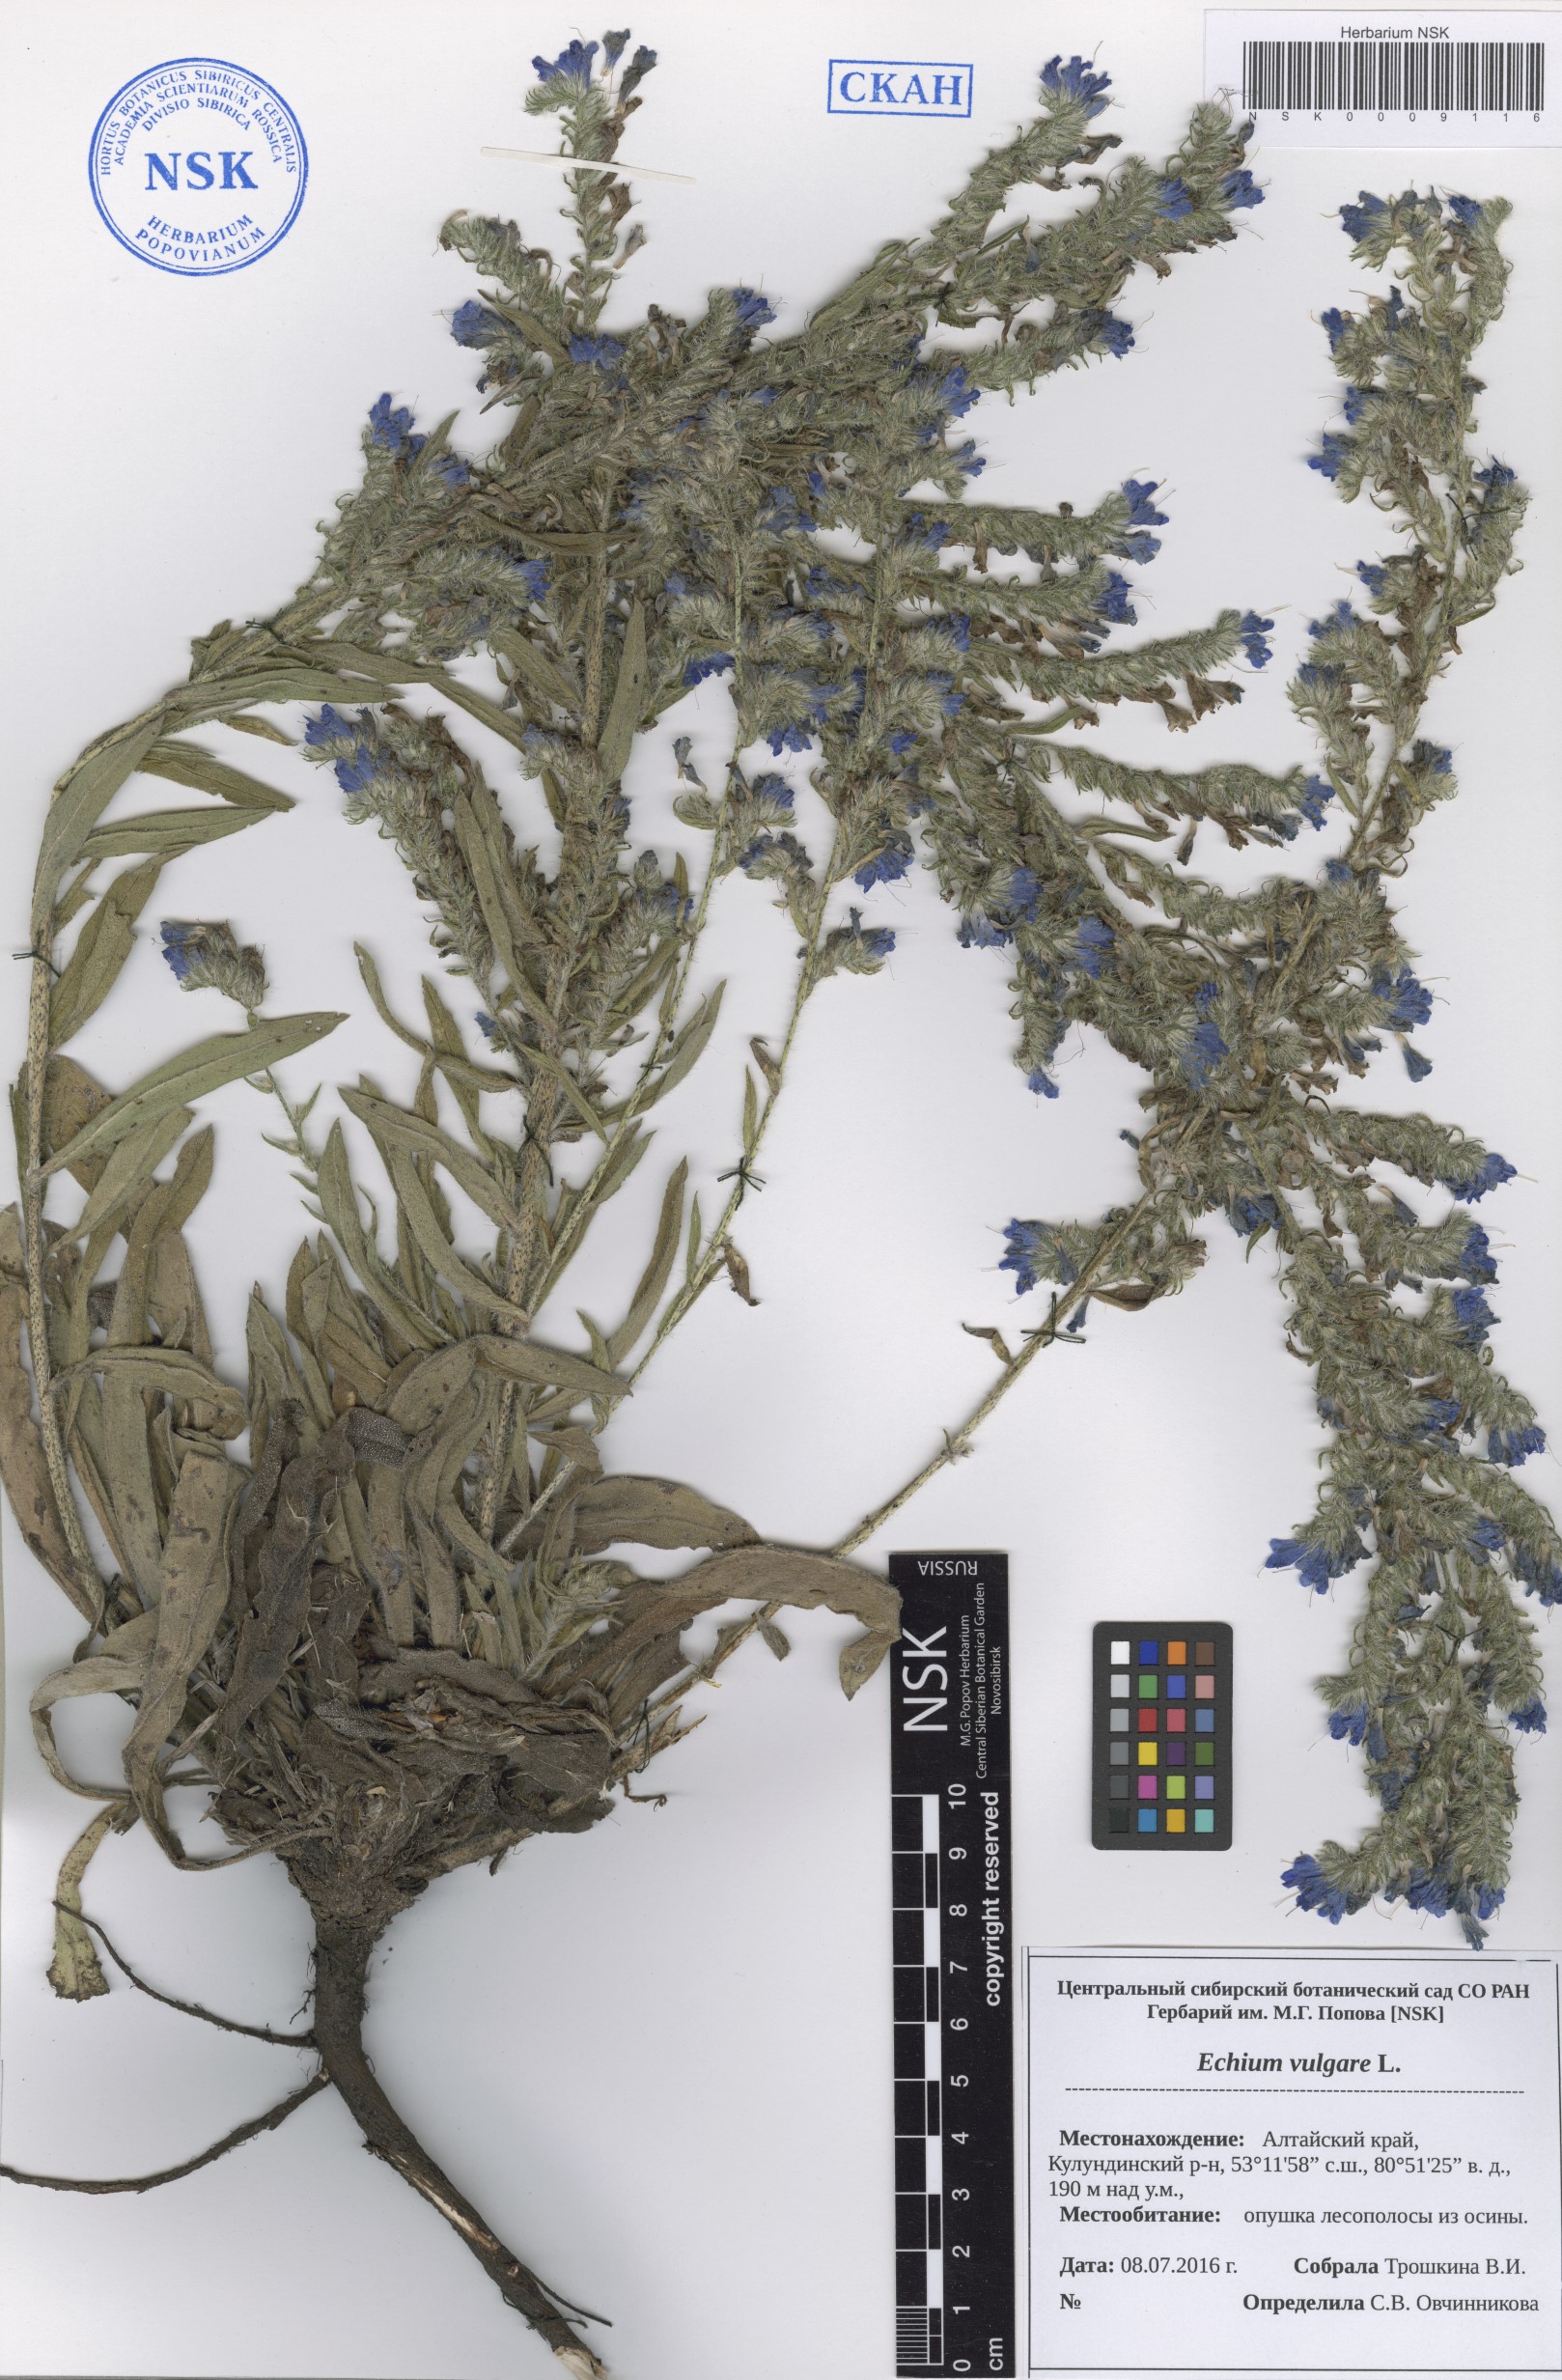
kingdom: Plantae
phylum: Tracheophyta
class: Magnoliopsida
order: Boraginales
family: Boraginaceae
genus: Echium
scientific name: Echium vulgare
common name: Common viper's bugloss
